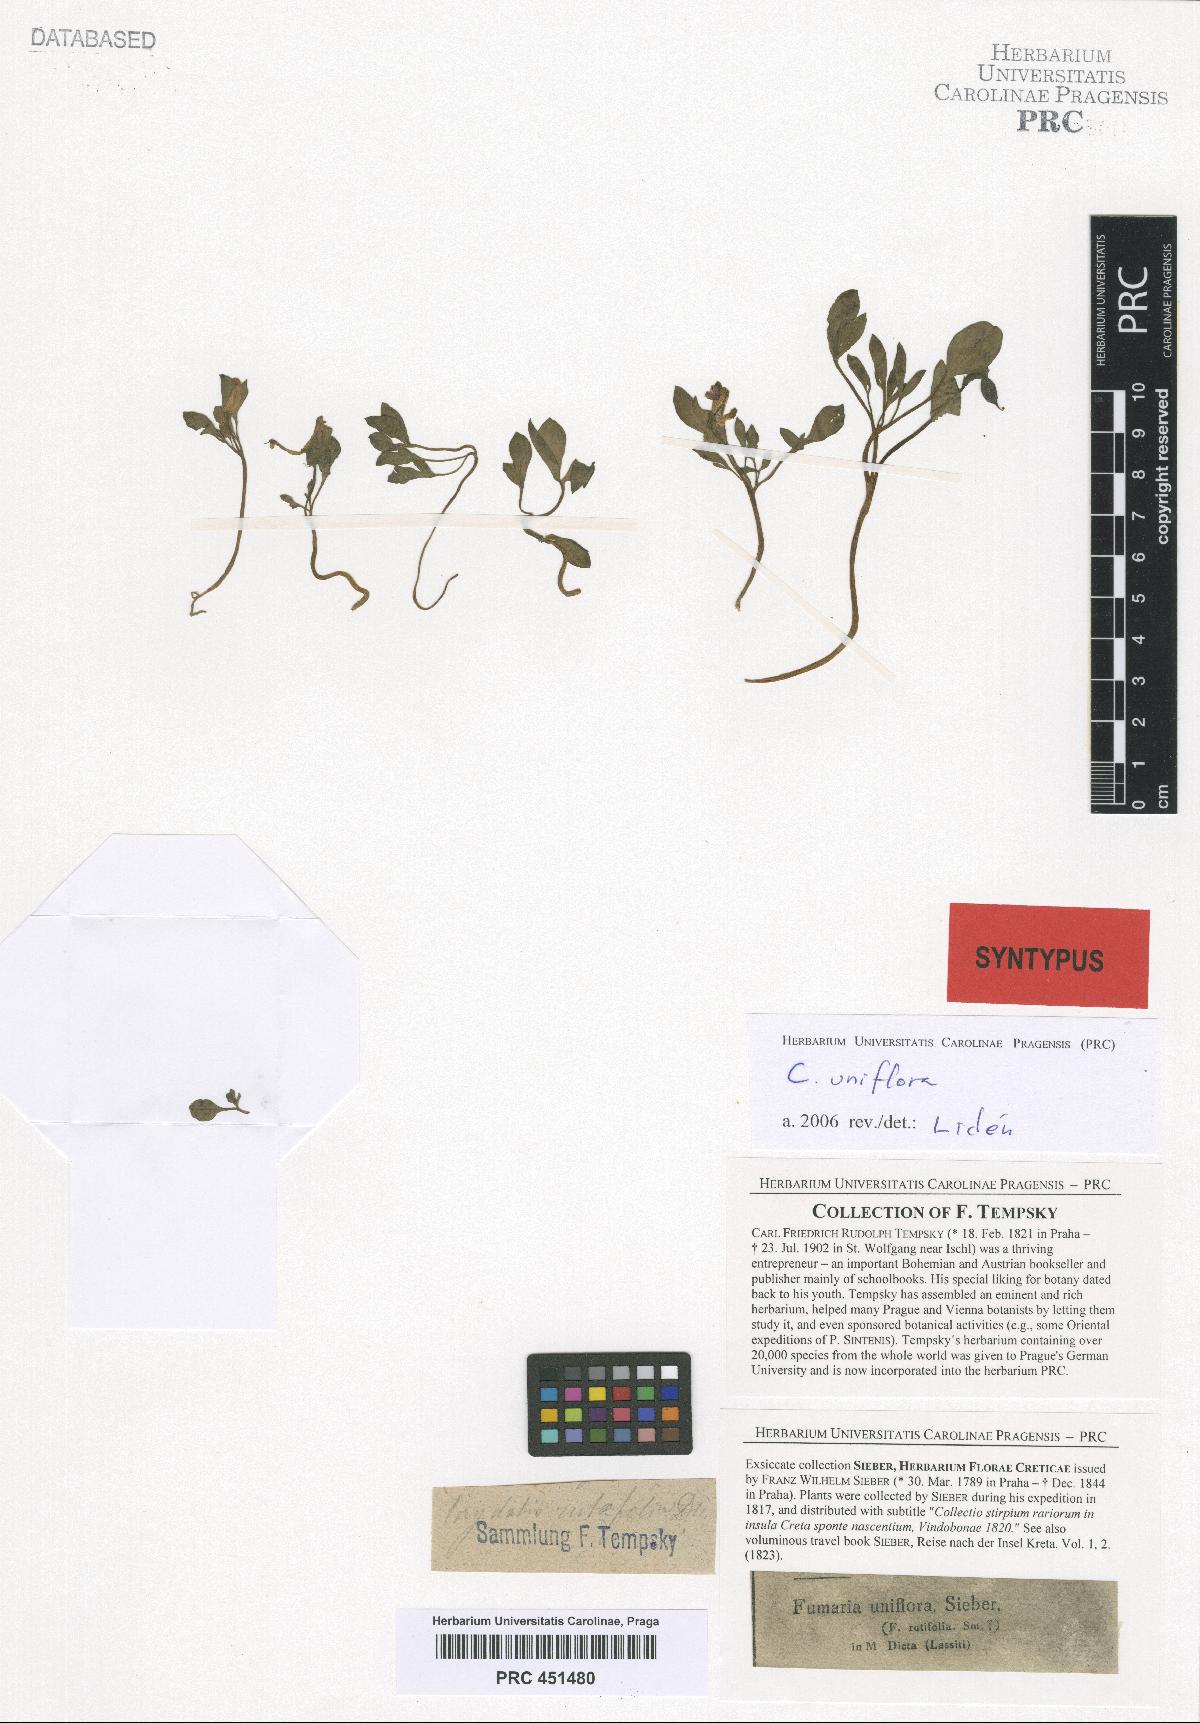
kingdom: Plantae
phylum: Tracheophyta
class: Magnoliopsida
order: Ranunculales
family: Papaveraceae
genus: Corydalis
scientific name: Corydalis uniflora
